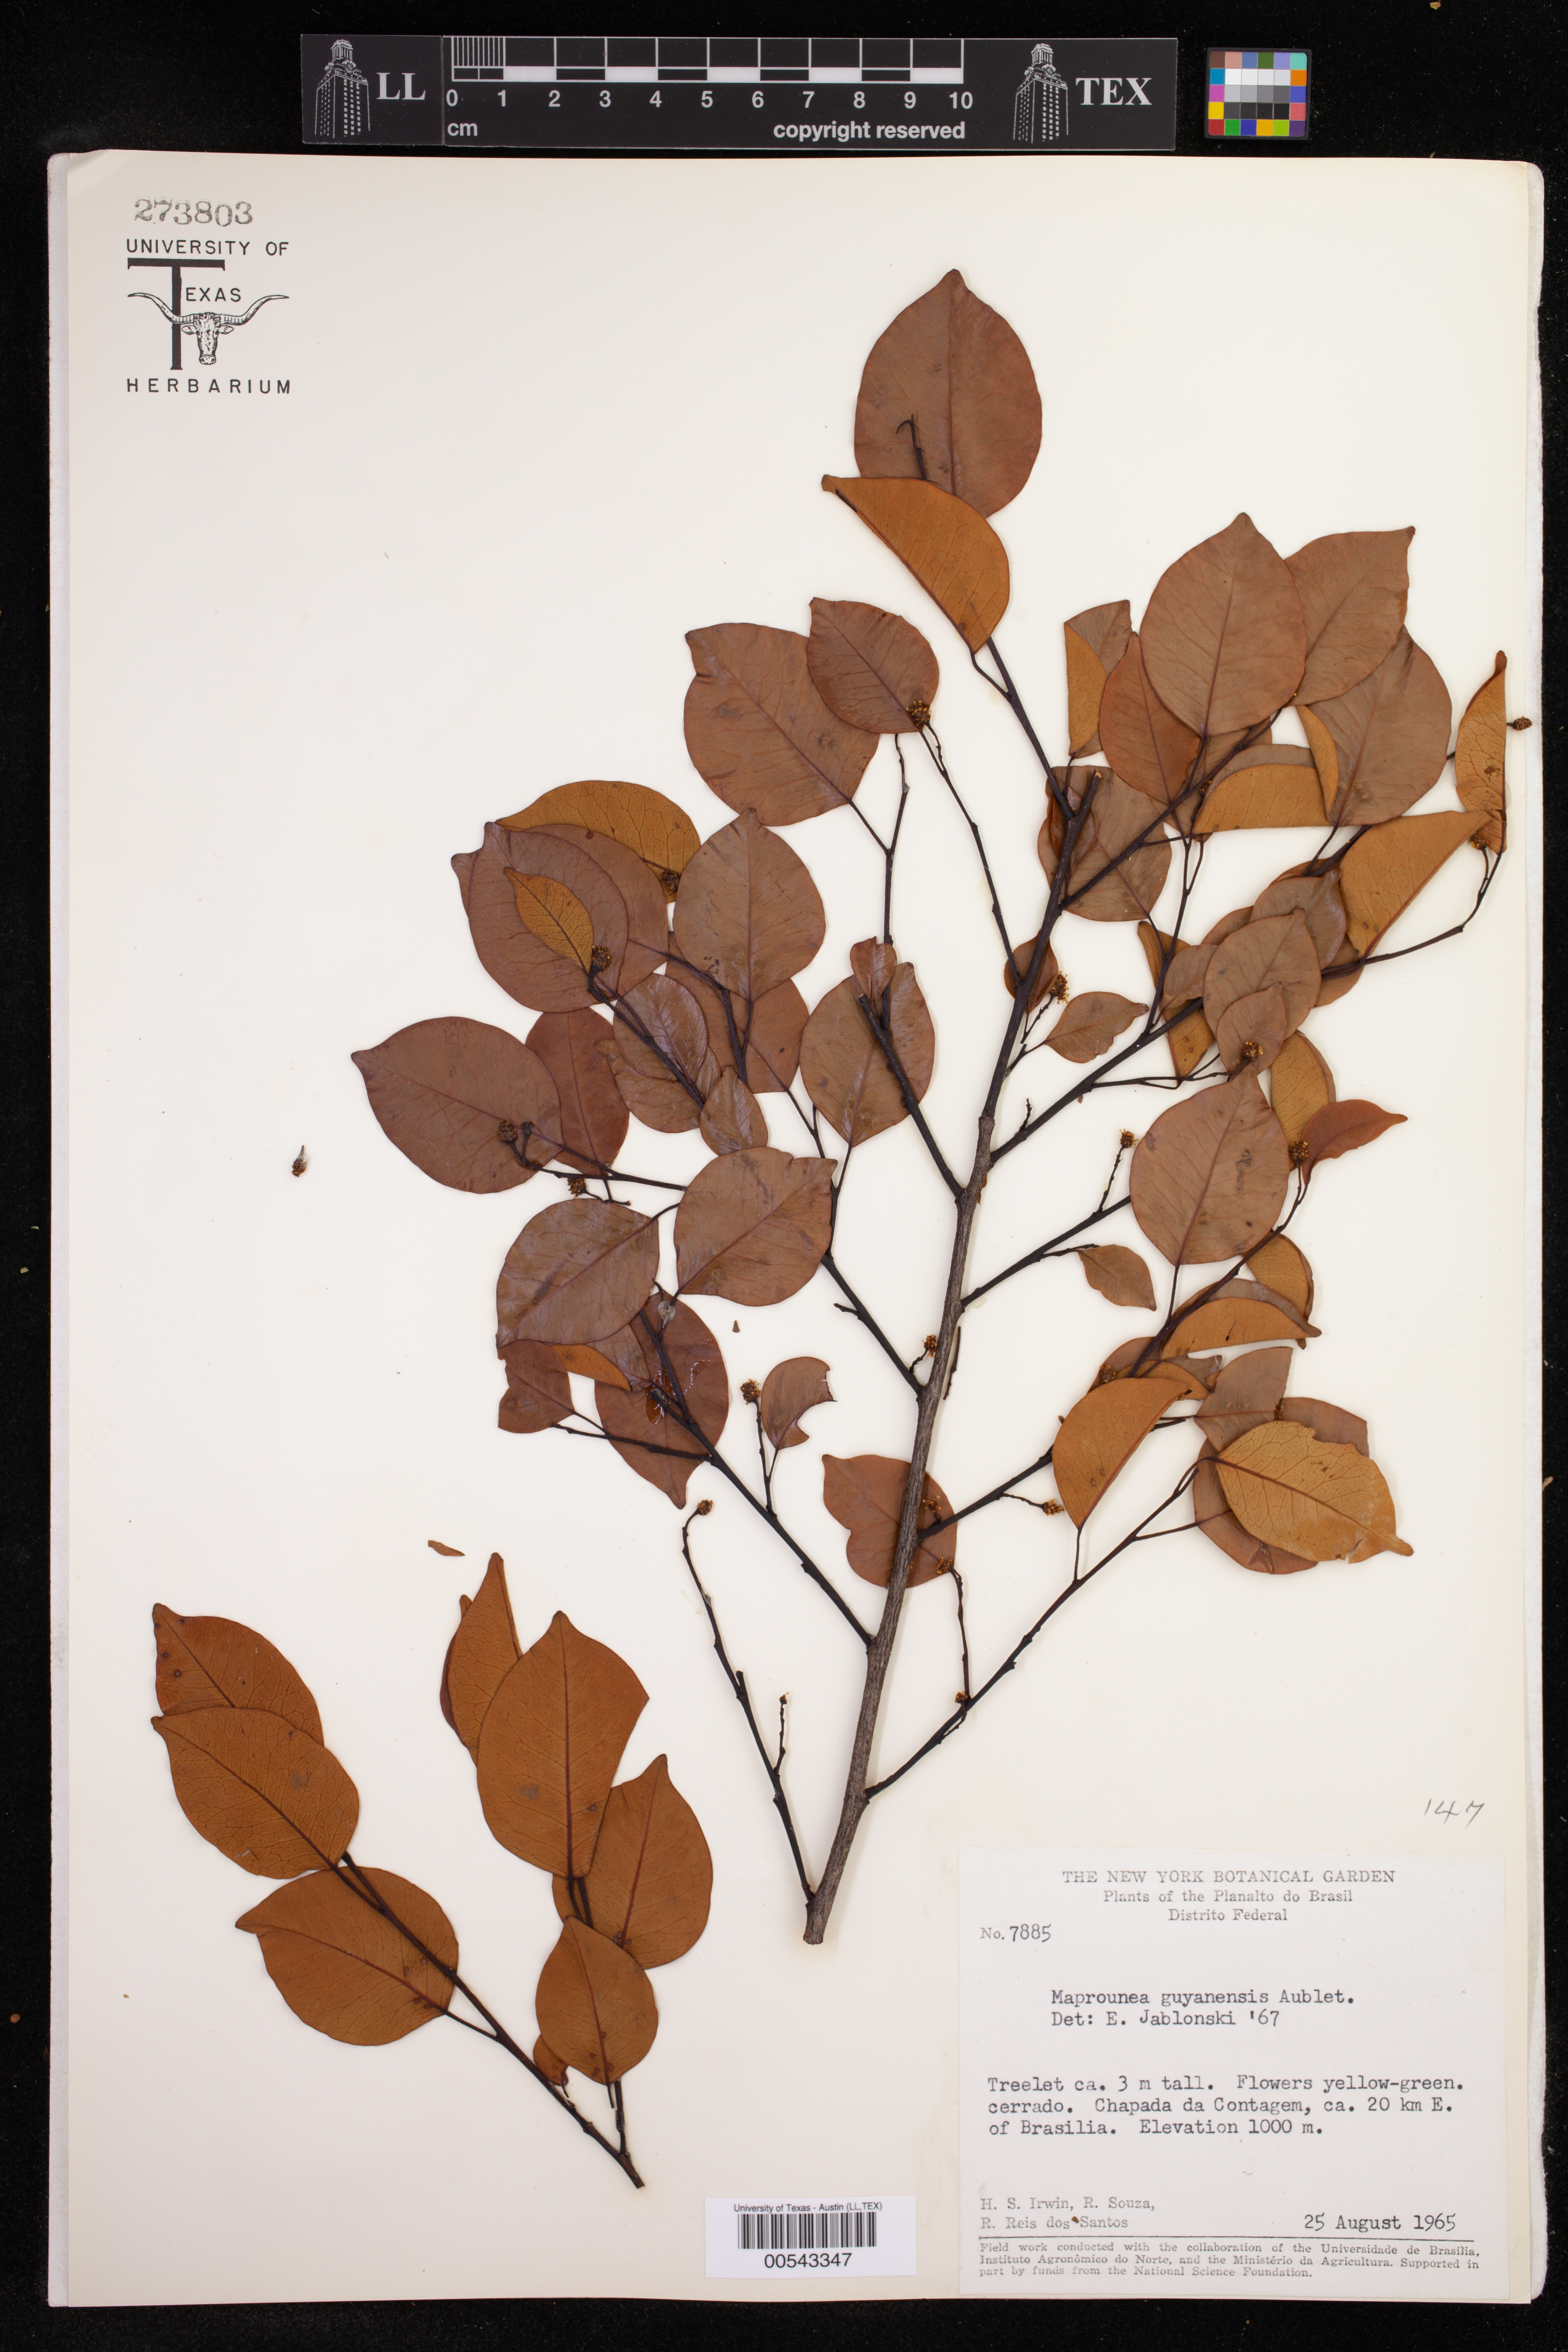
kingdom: Plantae
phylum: Tracheophyta
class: Magnoliopsida
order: Malpighiales
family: Euphorbiaceae
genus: Maprounea
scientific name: Maprounea guianensis
